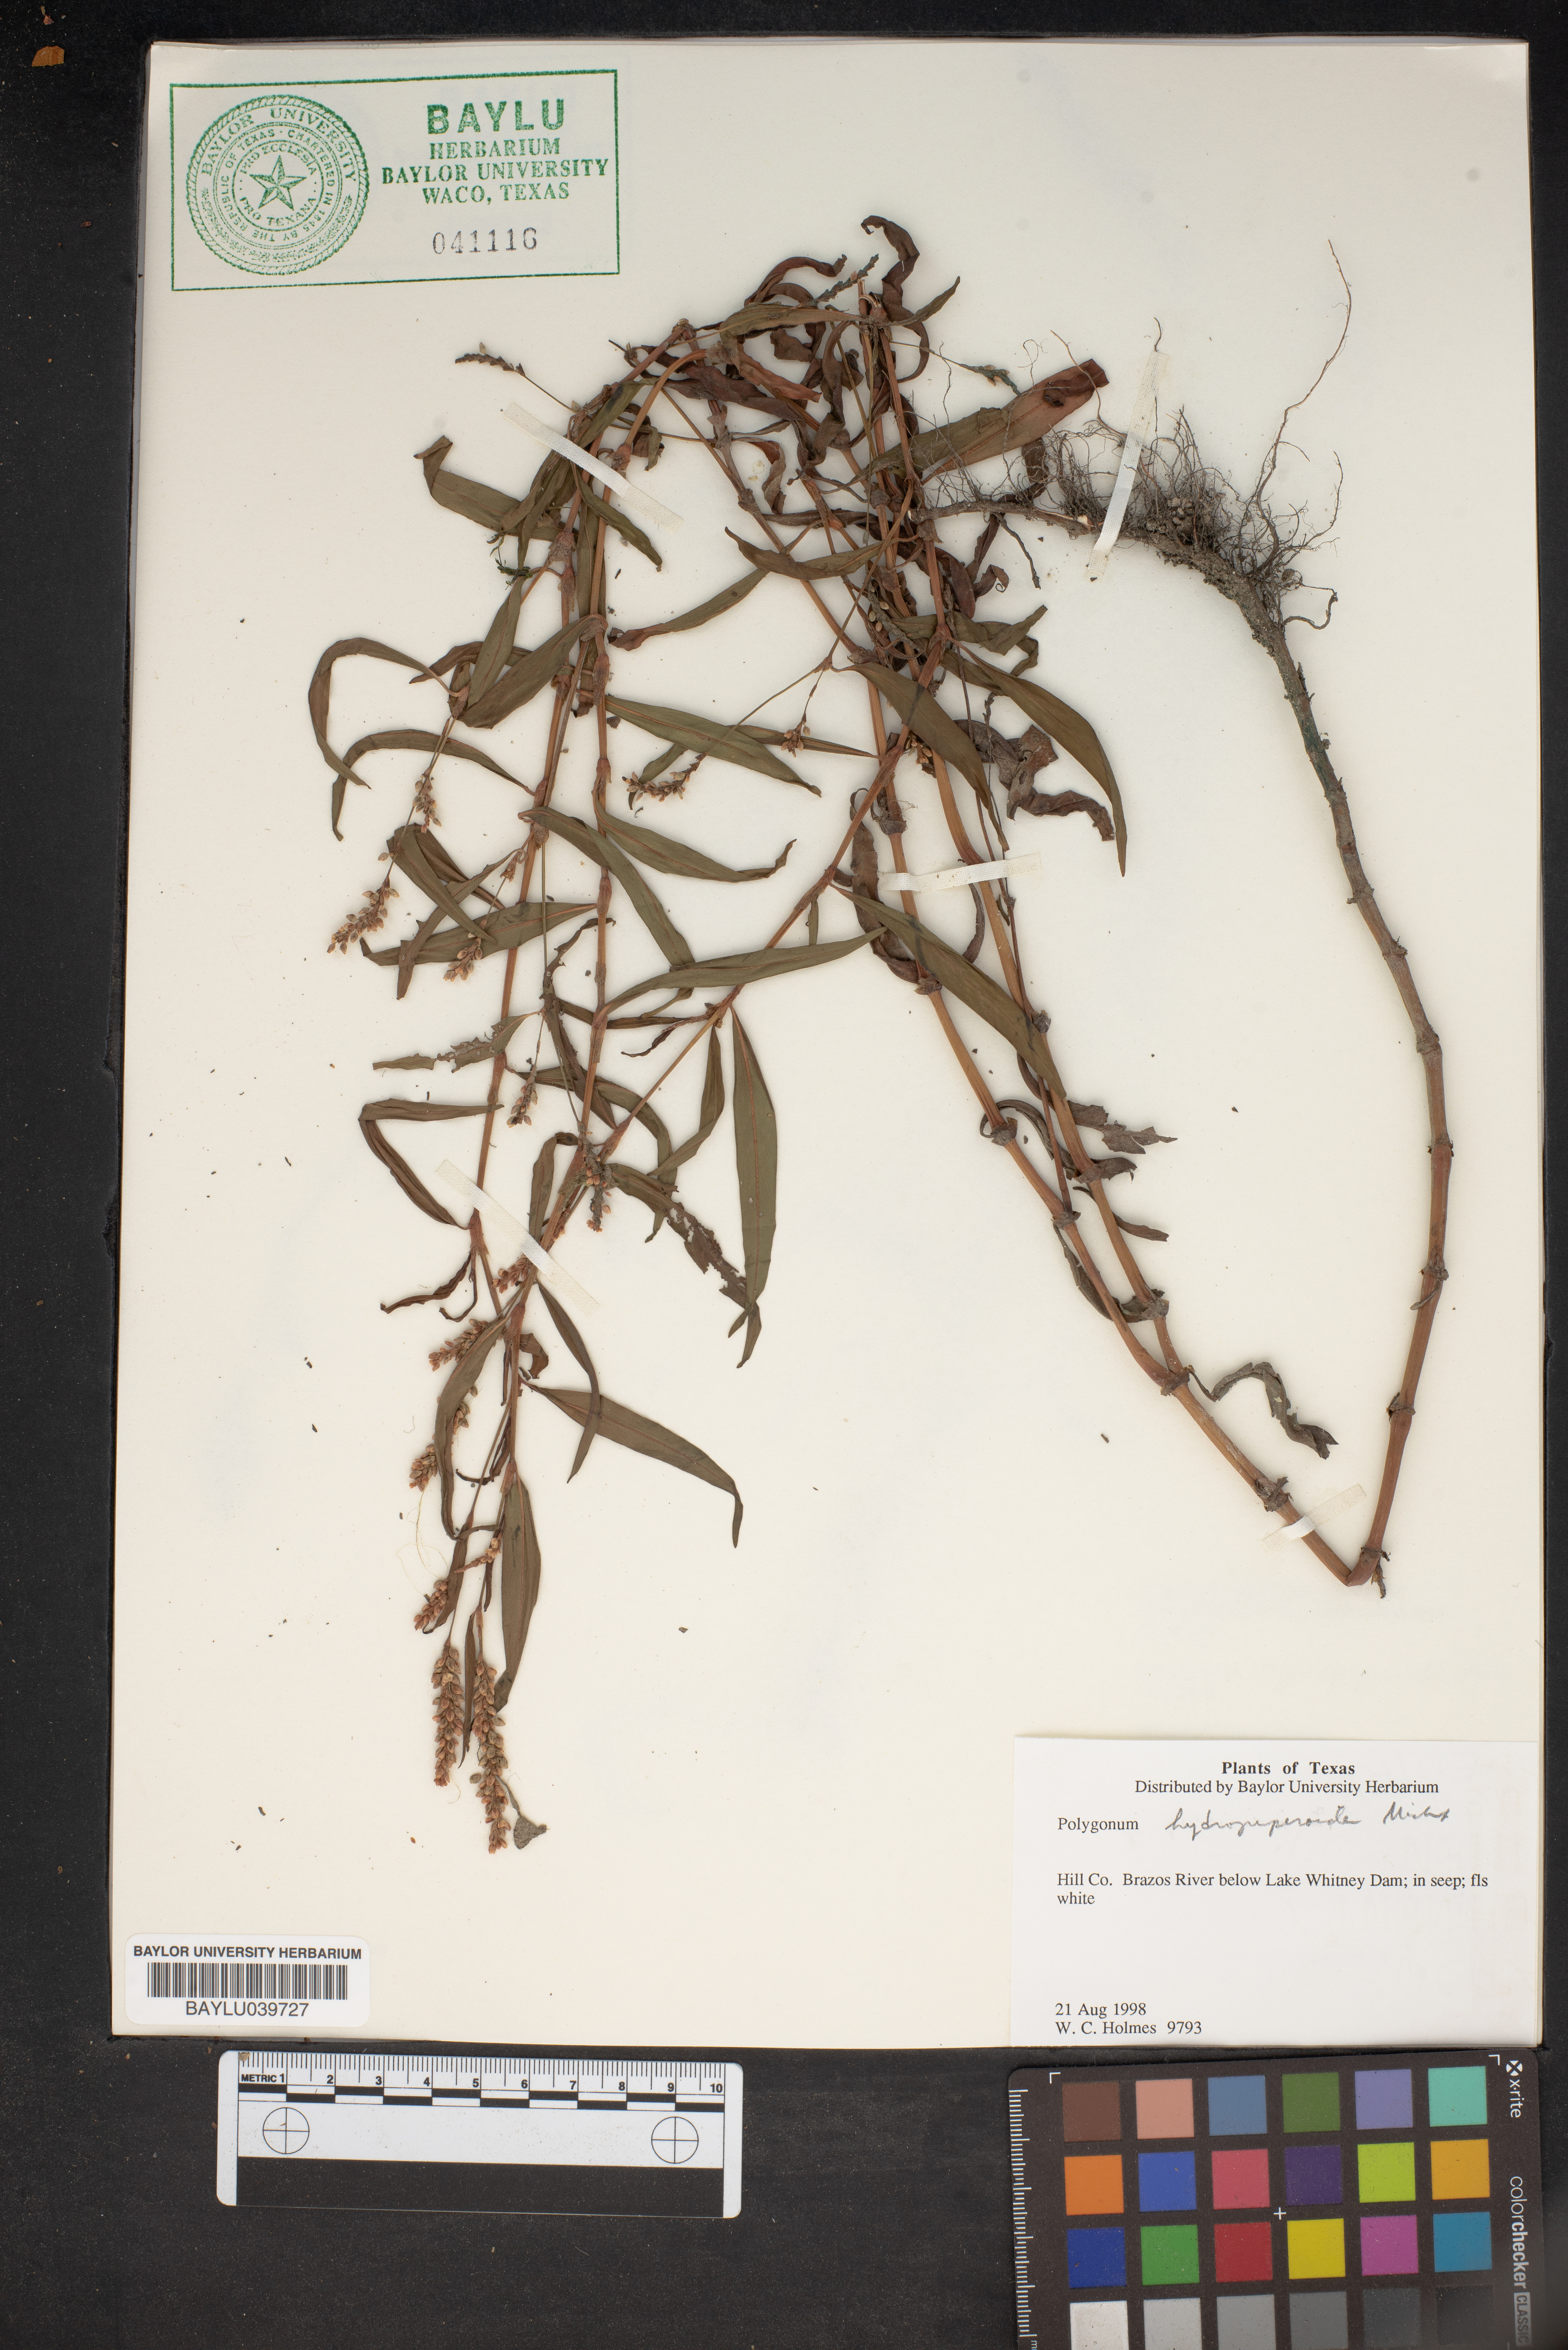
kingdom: Plantae
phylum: Tracheophyta
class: Magnoliopsida
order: Caryophyllales
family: Polygonaceae
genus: Persicaria
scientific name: Persicaria hydropiperoides
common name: Swamp smartweed
